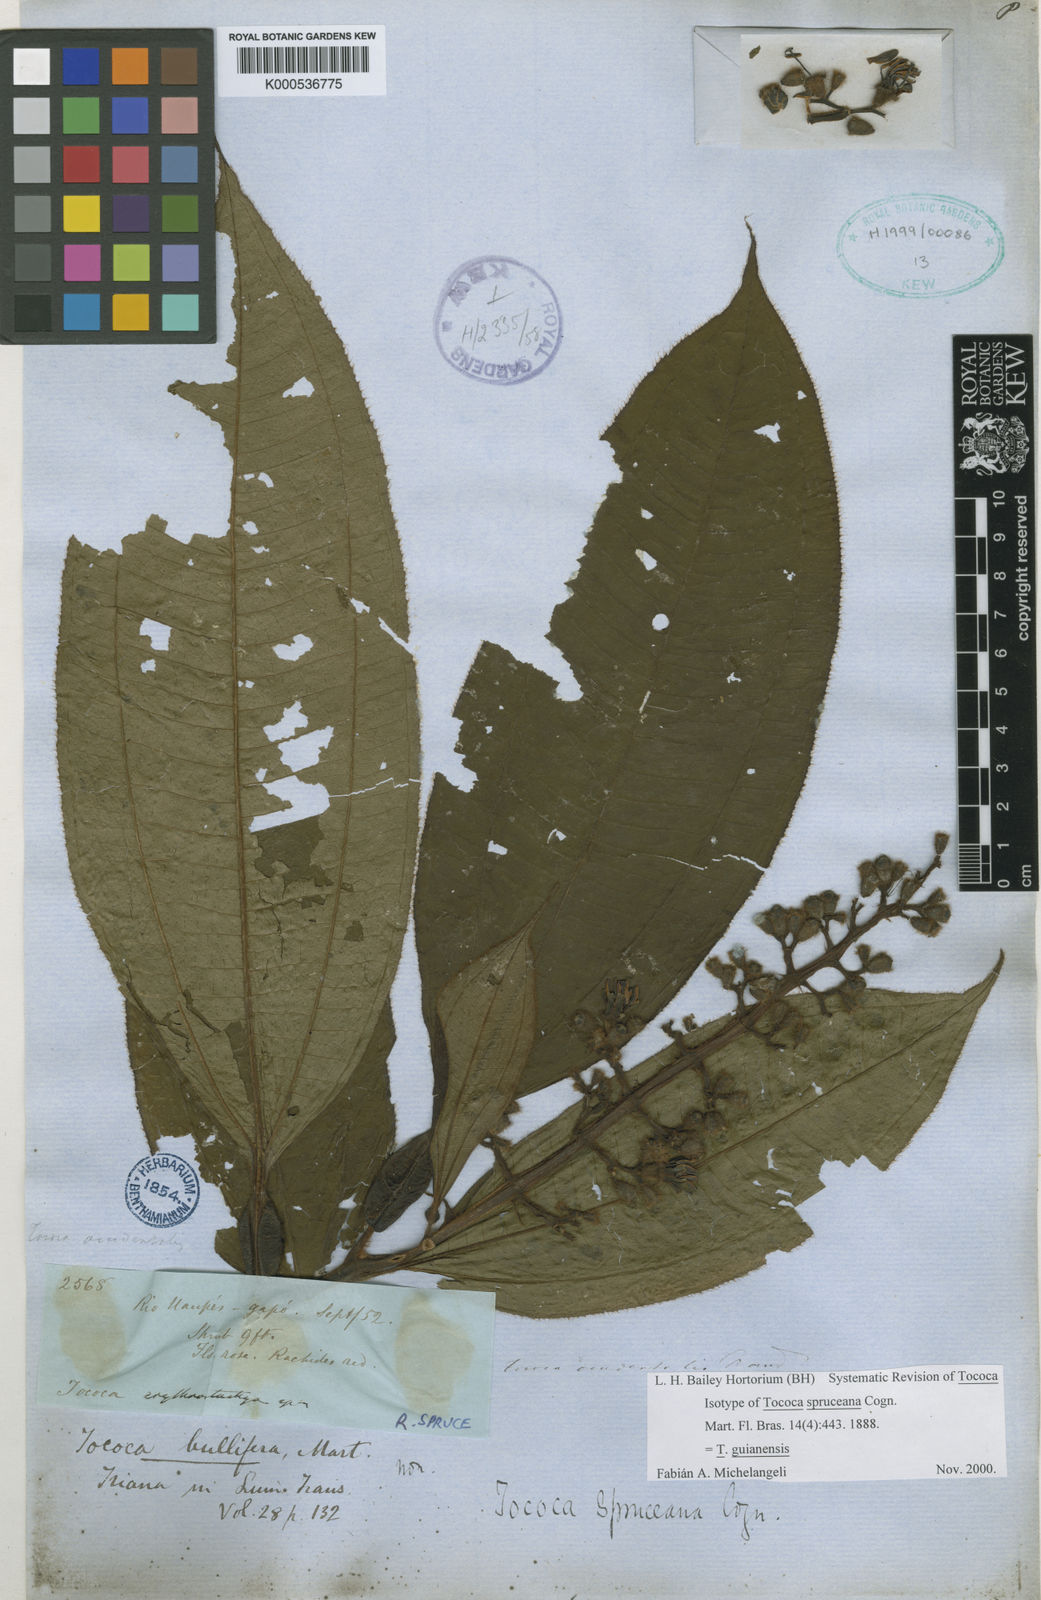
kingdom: Plantae
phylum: Tracheophyta
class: Magnoliopsida
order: Myrtales
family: Melastomataceae
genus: Miconia
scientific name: Miconia
